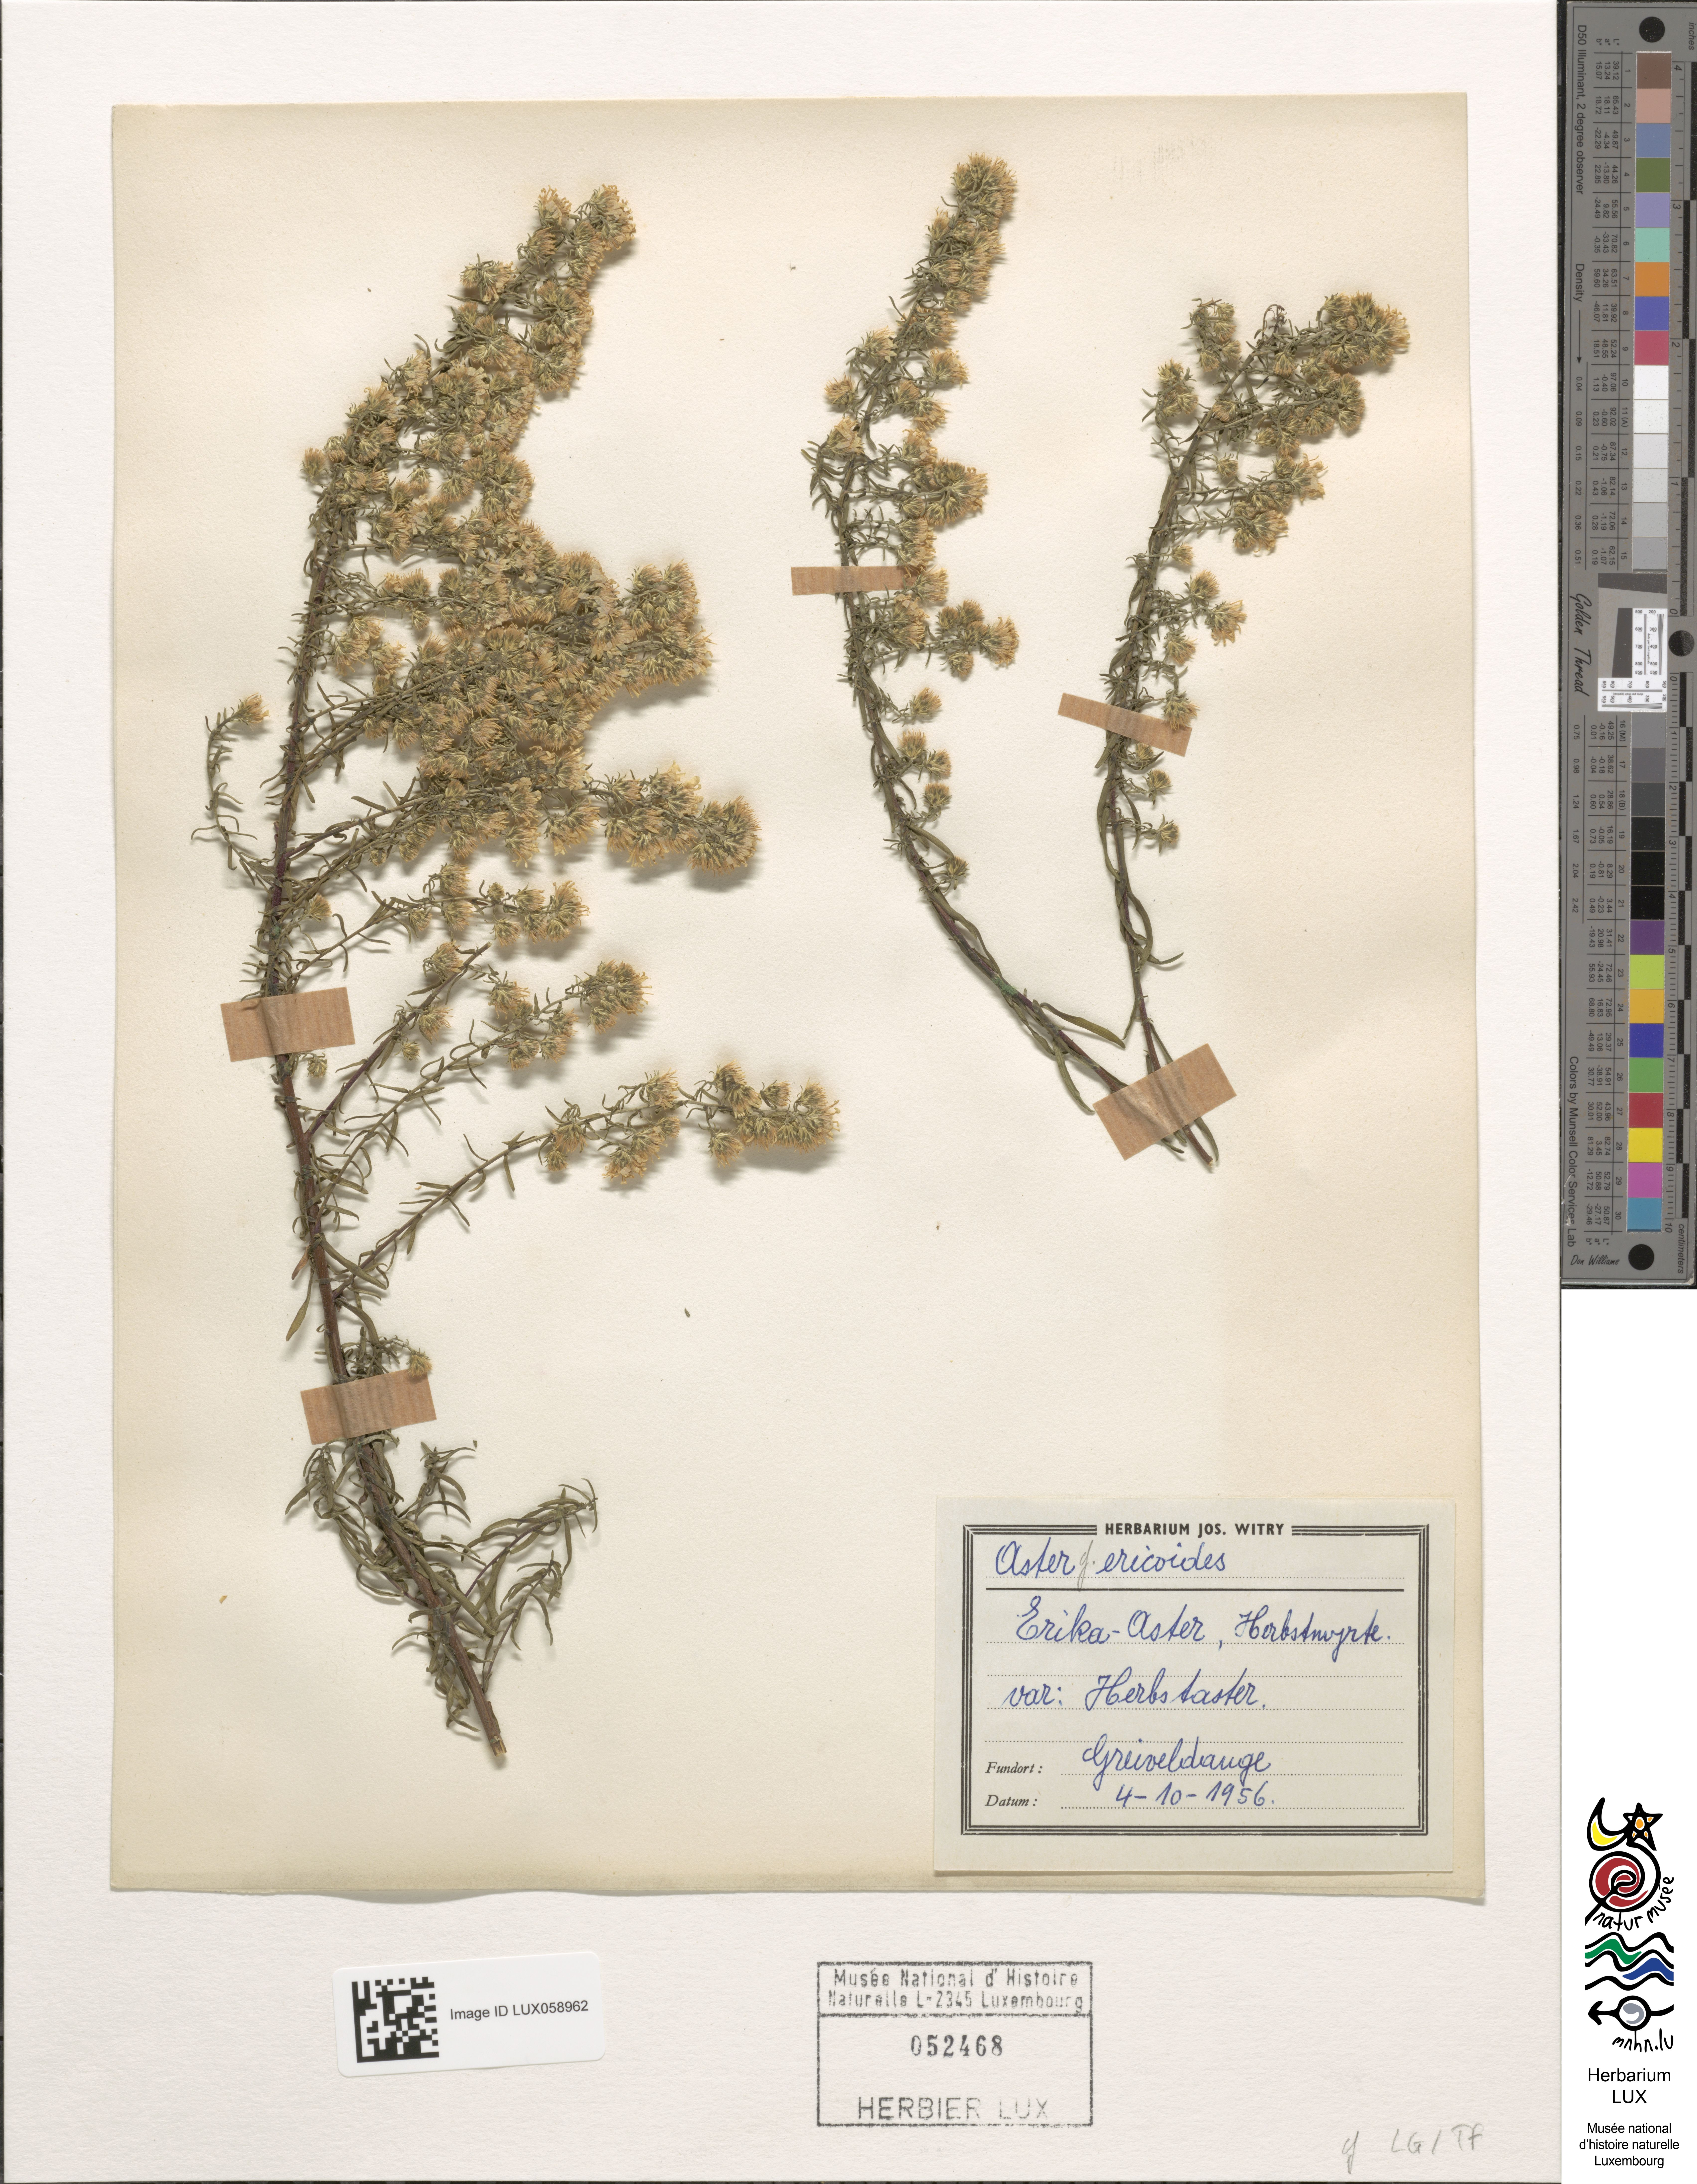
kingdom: Plantae
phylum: Tracheophyta
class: Magnoliopsida
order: Asterales
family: Asteraceae
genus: Symphyotrichum
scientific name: Symphyotrichum ericoides
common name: Heath aster
